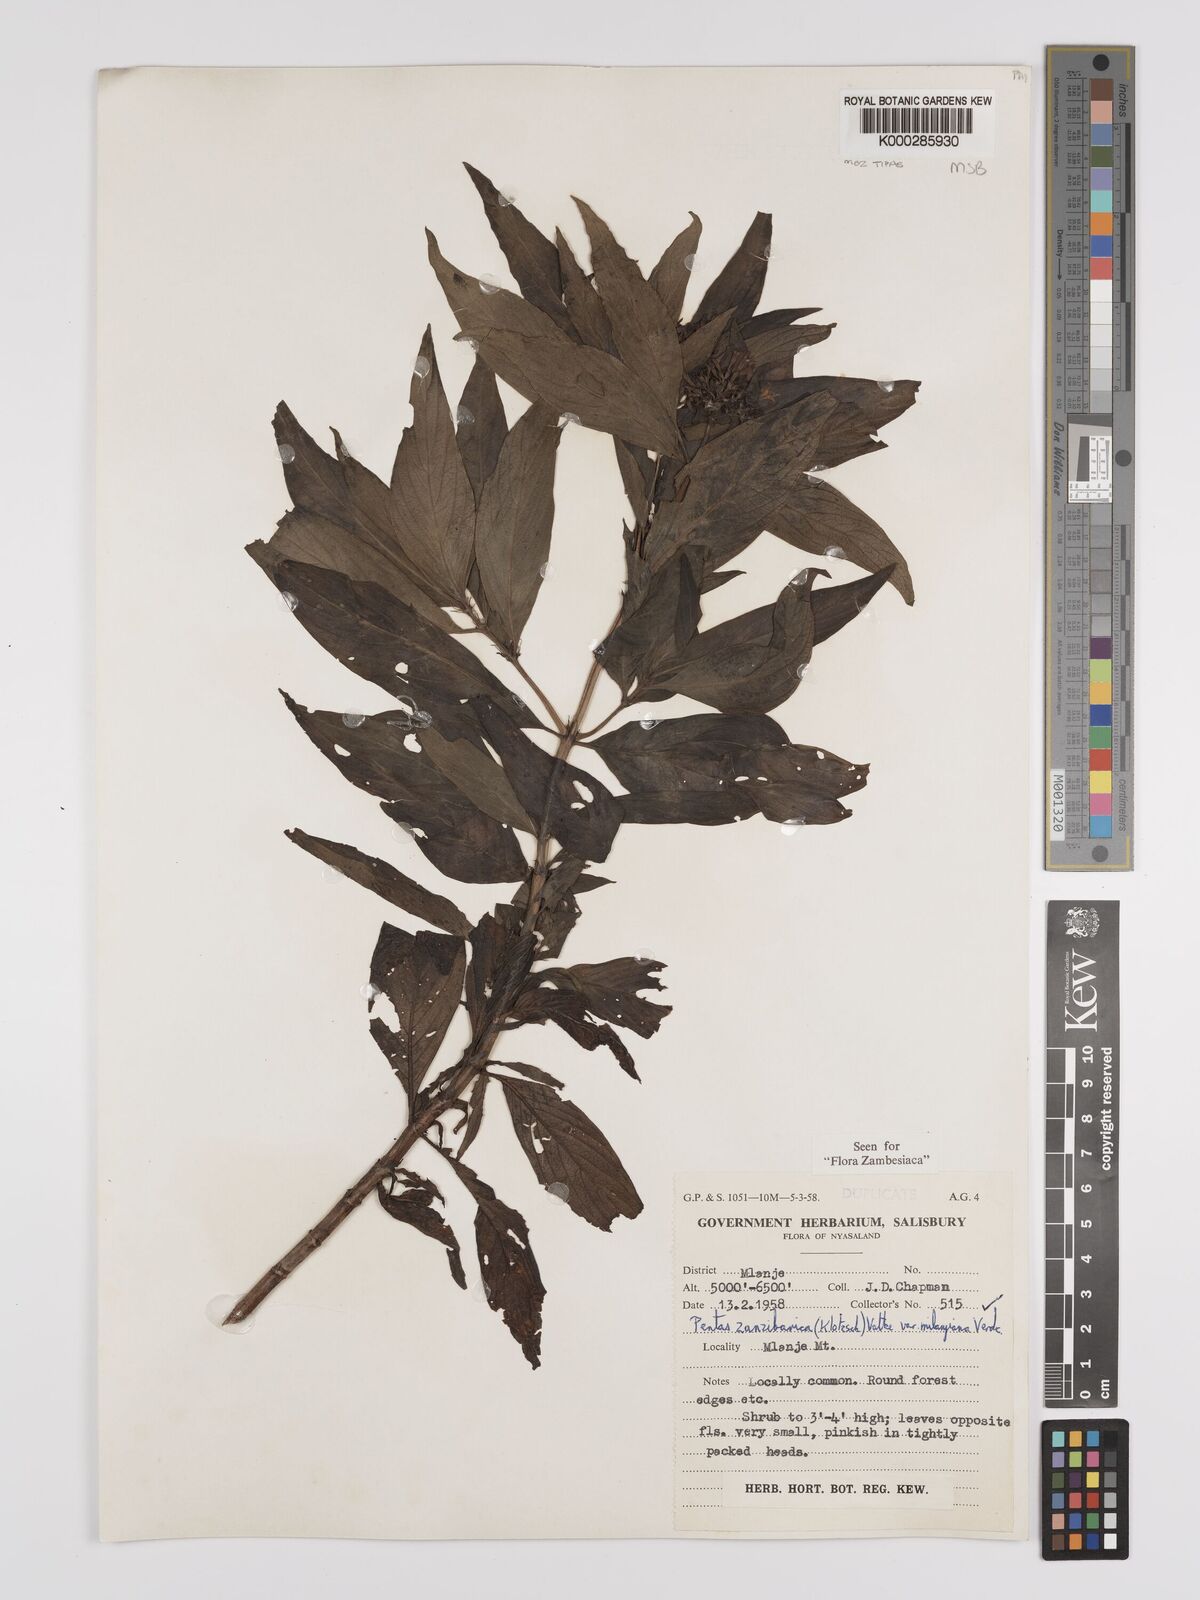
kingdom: Plantae
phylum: Tracheophyta
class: Magnoliopsida
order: Gentianales
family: Rubiaceae
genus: Pentas
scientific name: Pentas zanzibarica
